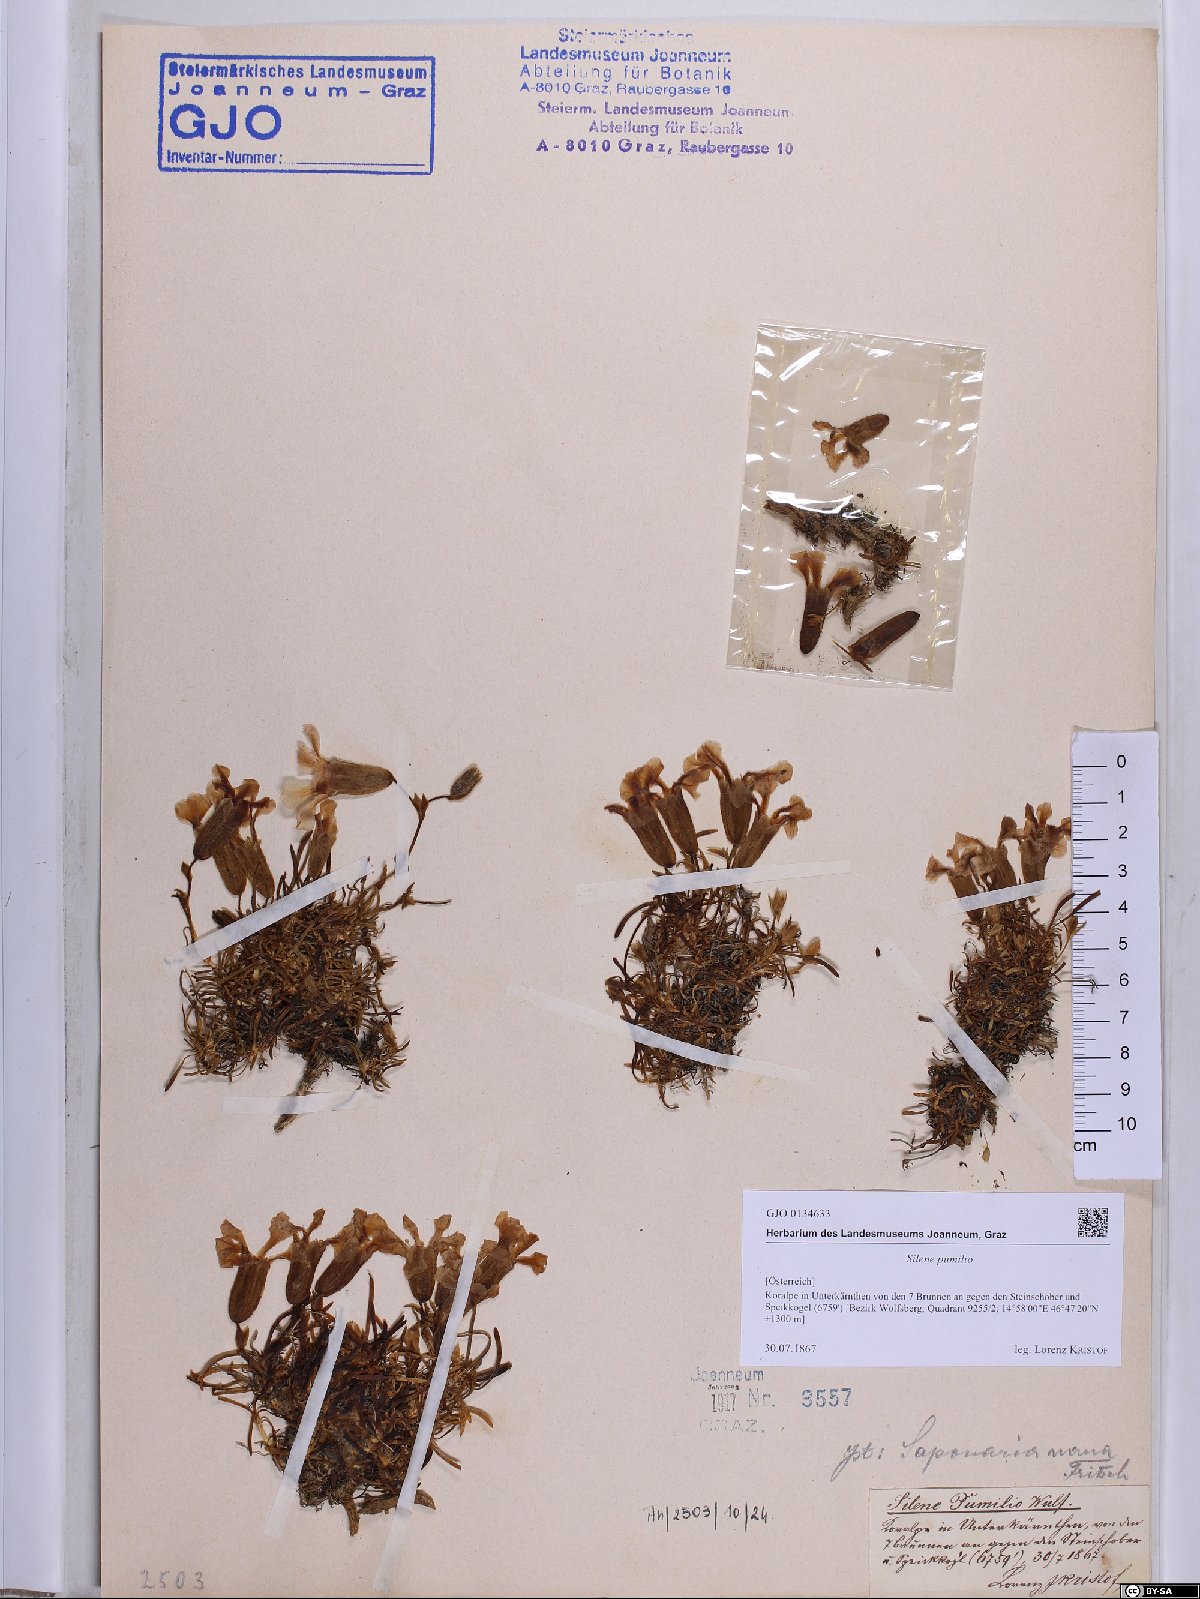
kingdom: Plantae
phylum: Tracheophyta
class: Magnoliopsida
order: Caryophyllales
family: Caryophyllaceae
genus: Saponaria
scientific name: Saponaria pumila
